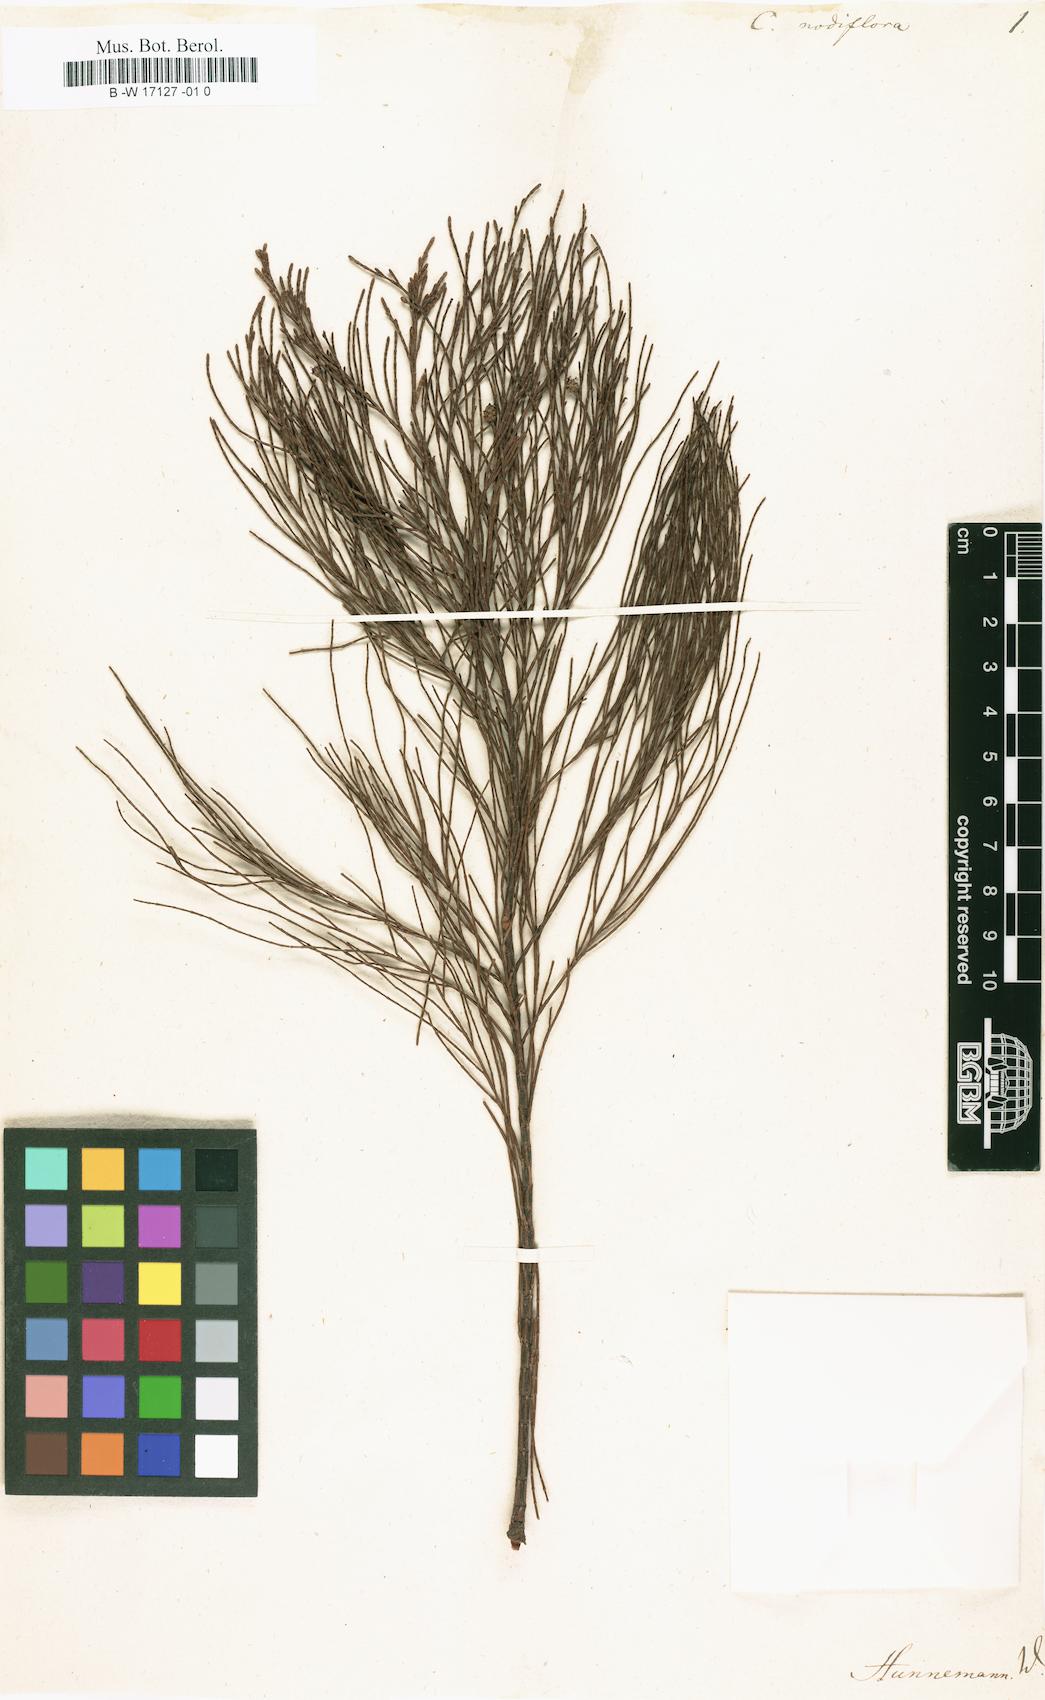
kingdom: Plantae
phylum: Tracheophyta
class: Magnoliopsida
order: Fagales
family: Casuarinaceae
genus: Gymnostoma
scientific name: Gymnostoma nodiflorum
